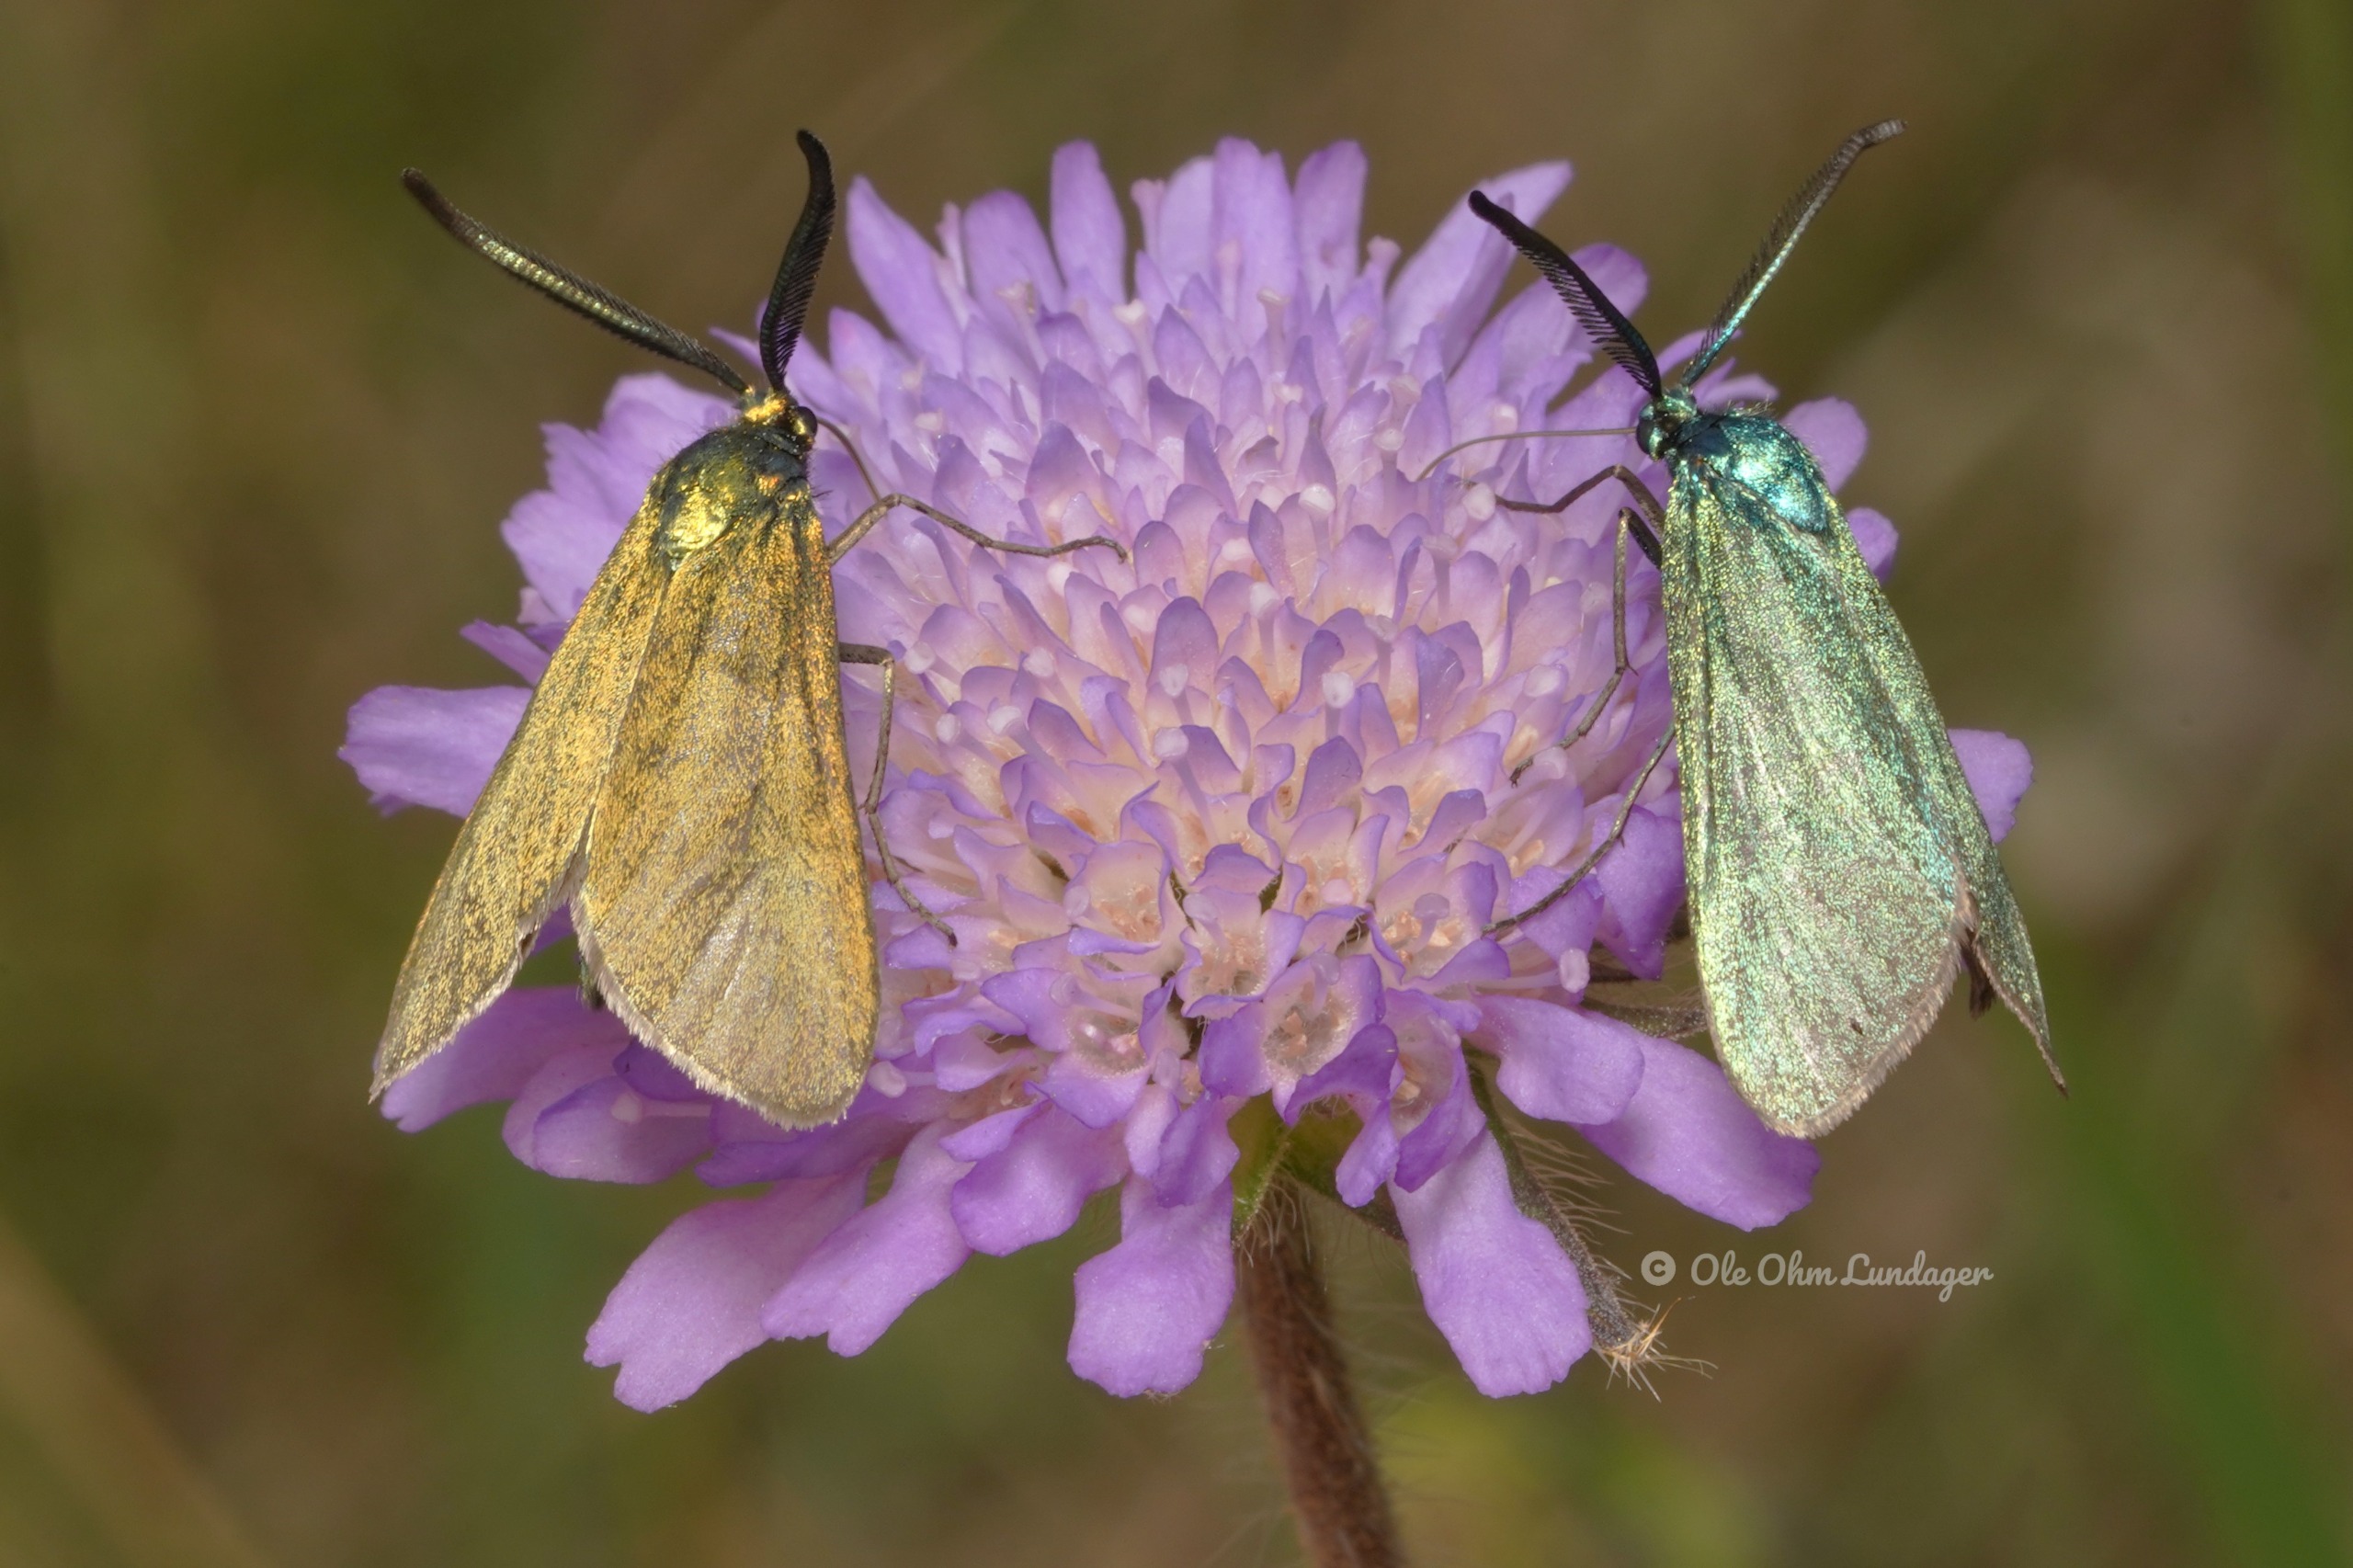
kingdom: Animalia
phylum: Arthropoda
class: Insecta
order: Lepidoptera
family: Zygaenidae
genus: Adscita
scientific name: Adscita statices
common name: Metalvinge
